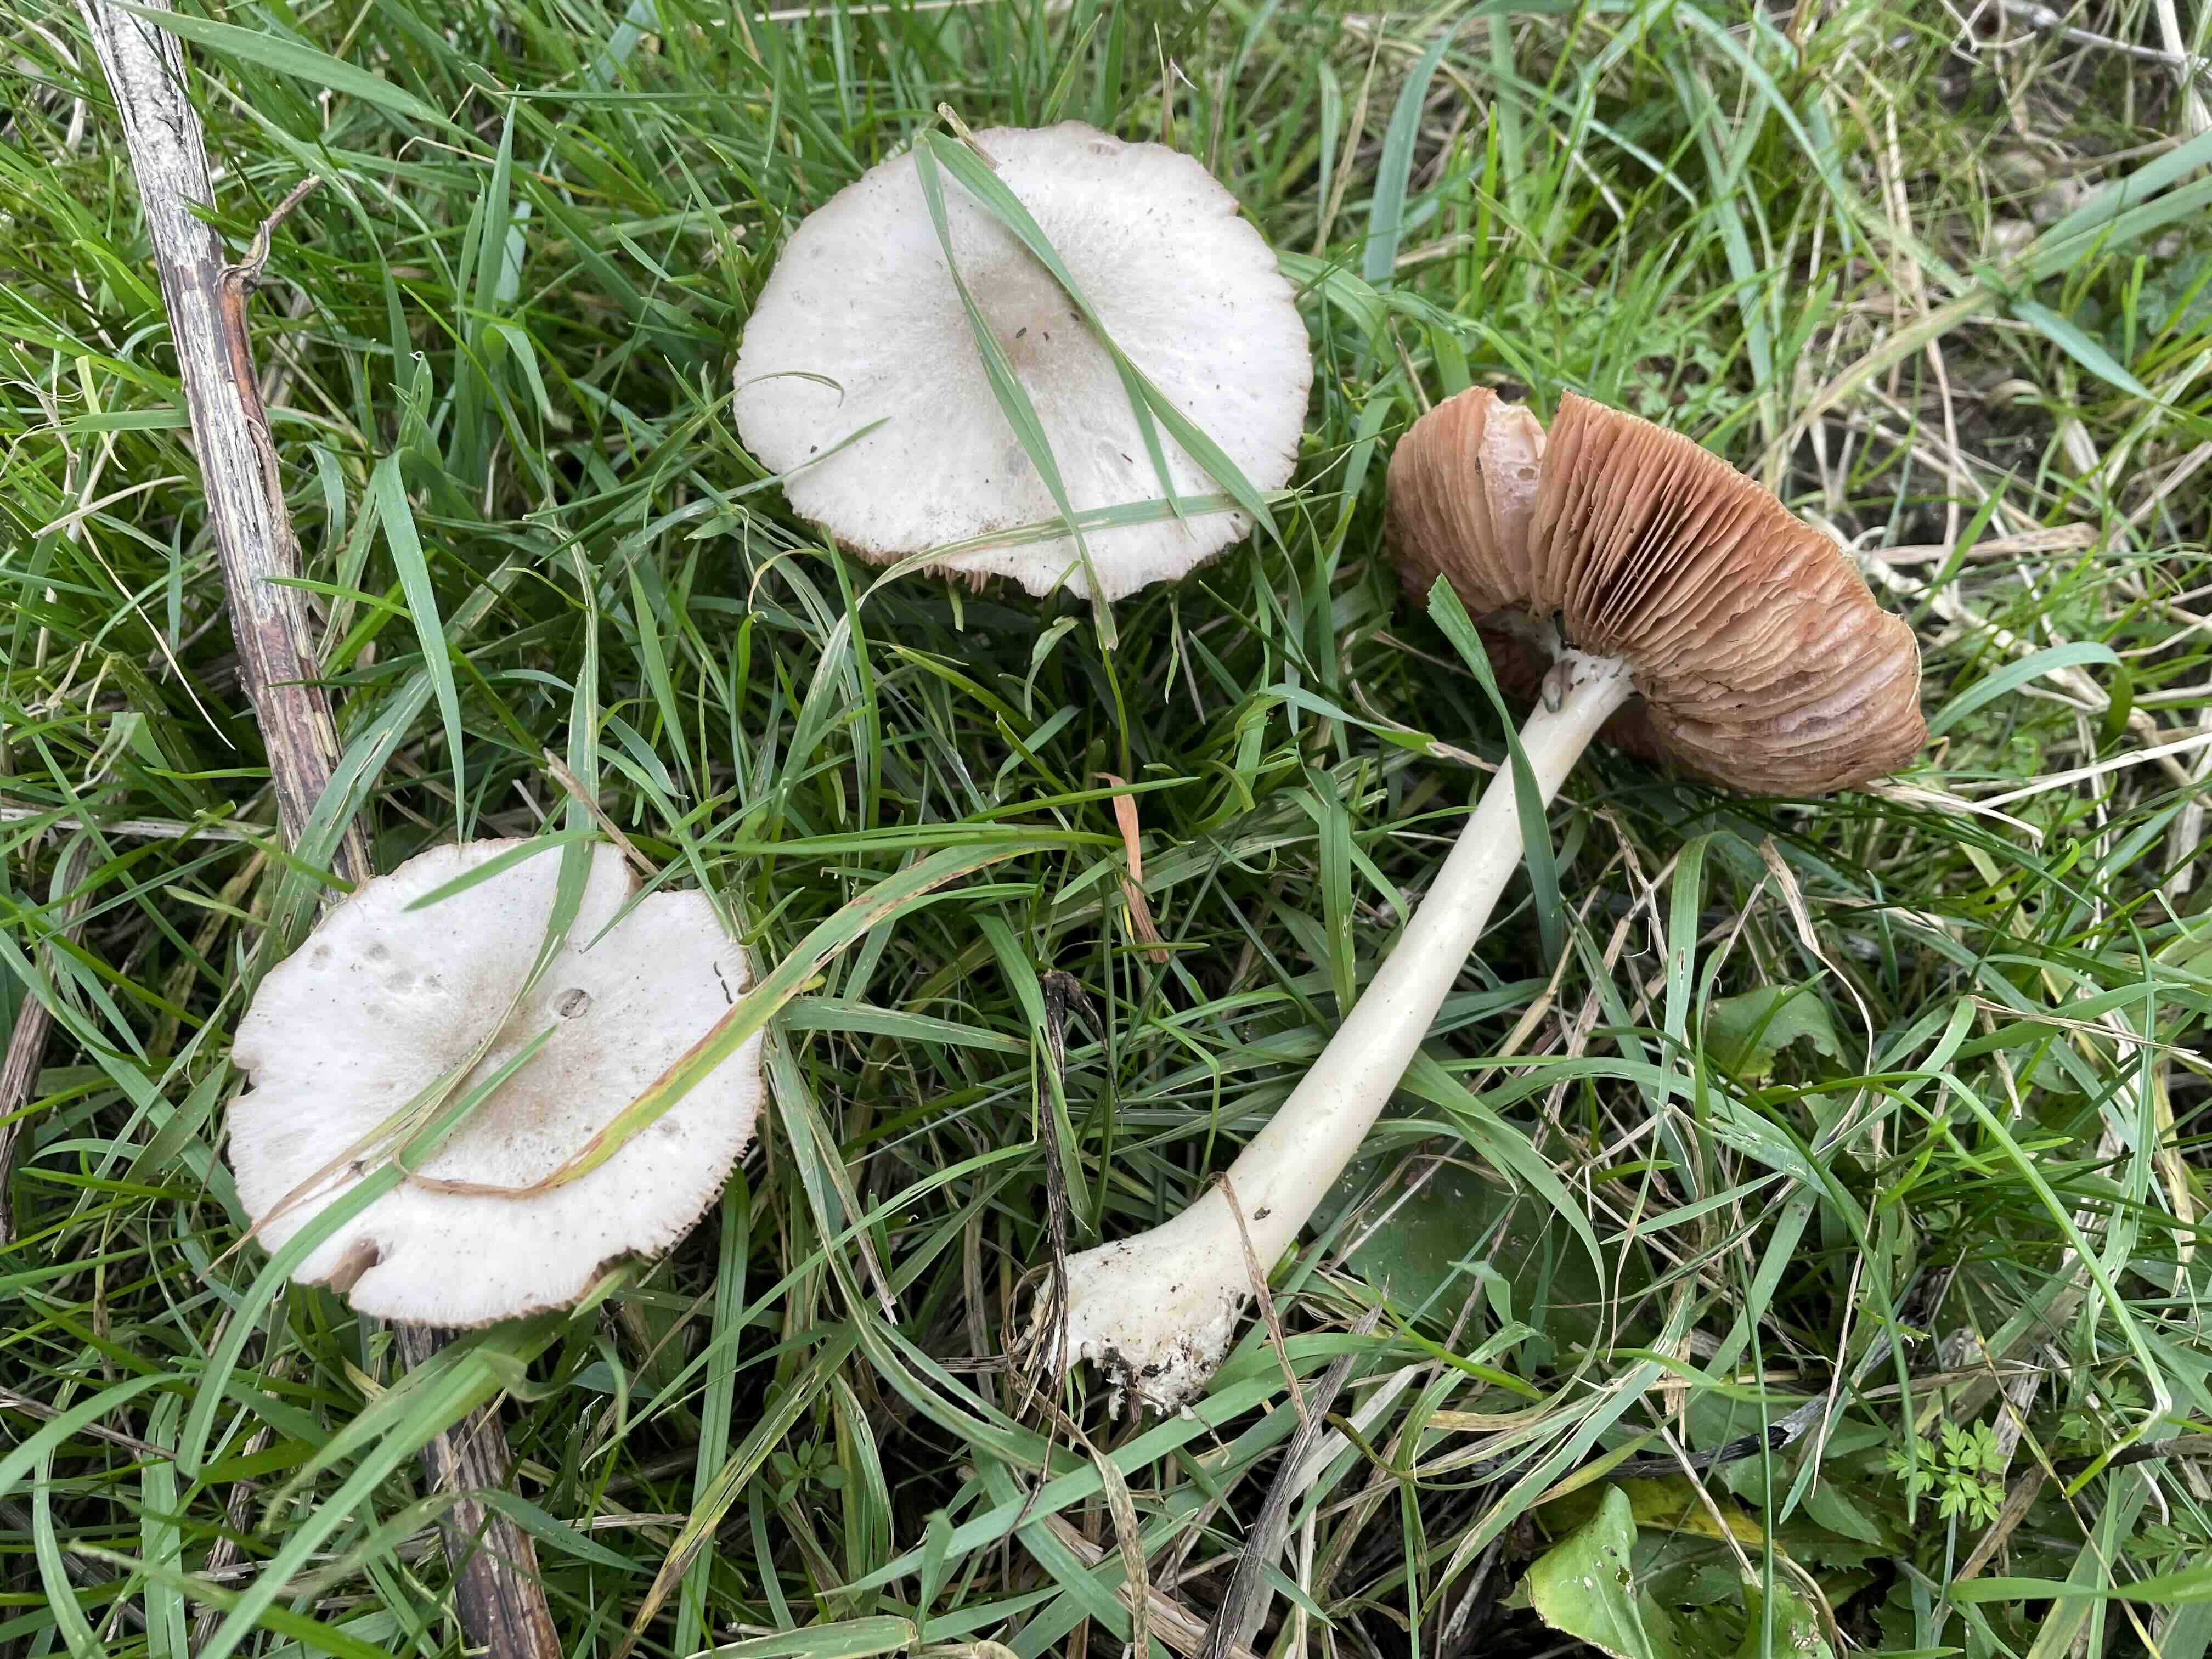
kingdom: Fungi
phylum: Basidiomycota
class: Agaricomycetes
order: Agaricales
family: Pluteaceae
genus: Volvopluteus
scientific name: Volvopluteus gloiocephalus
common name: høj posesvamp
